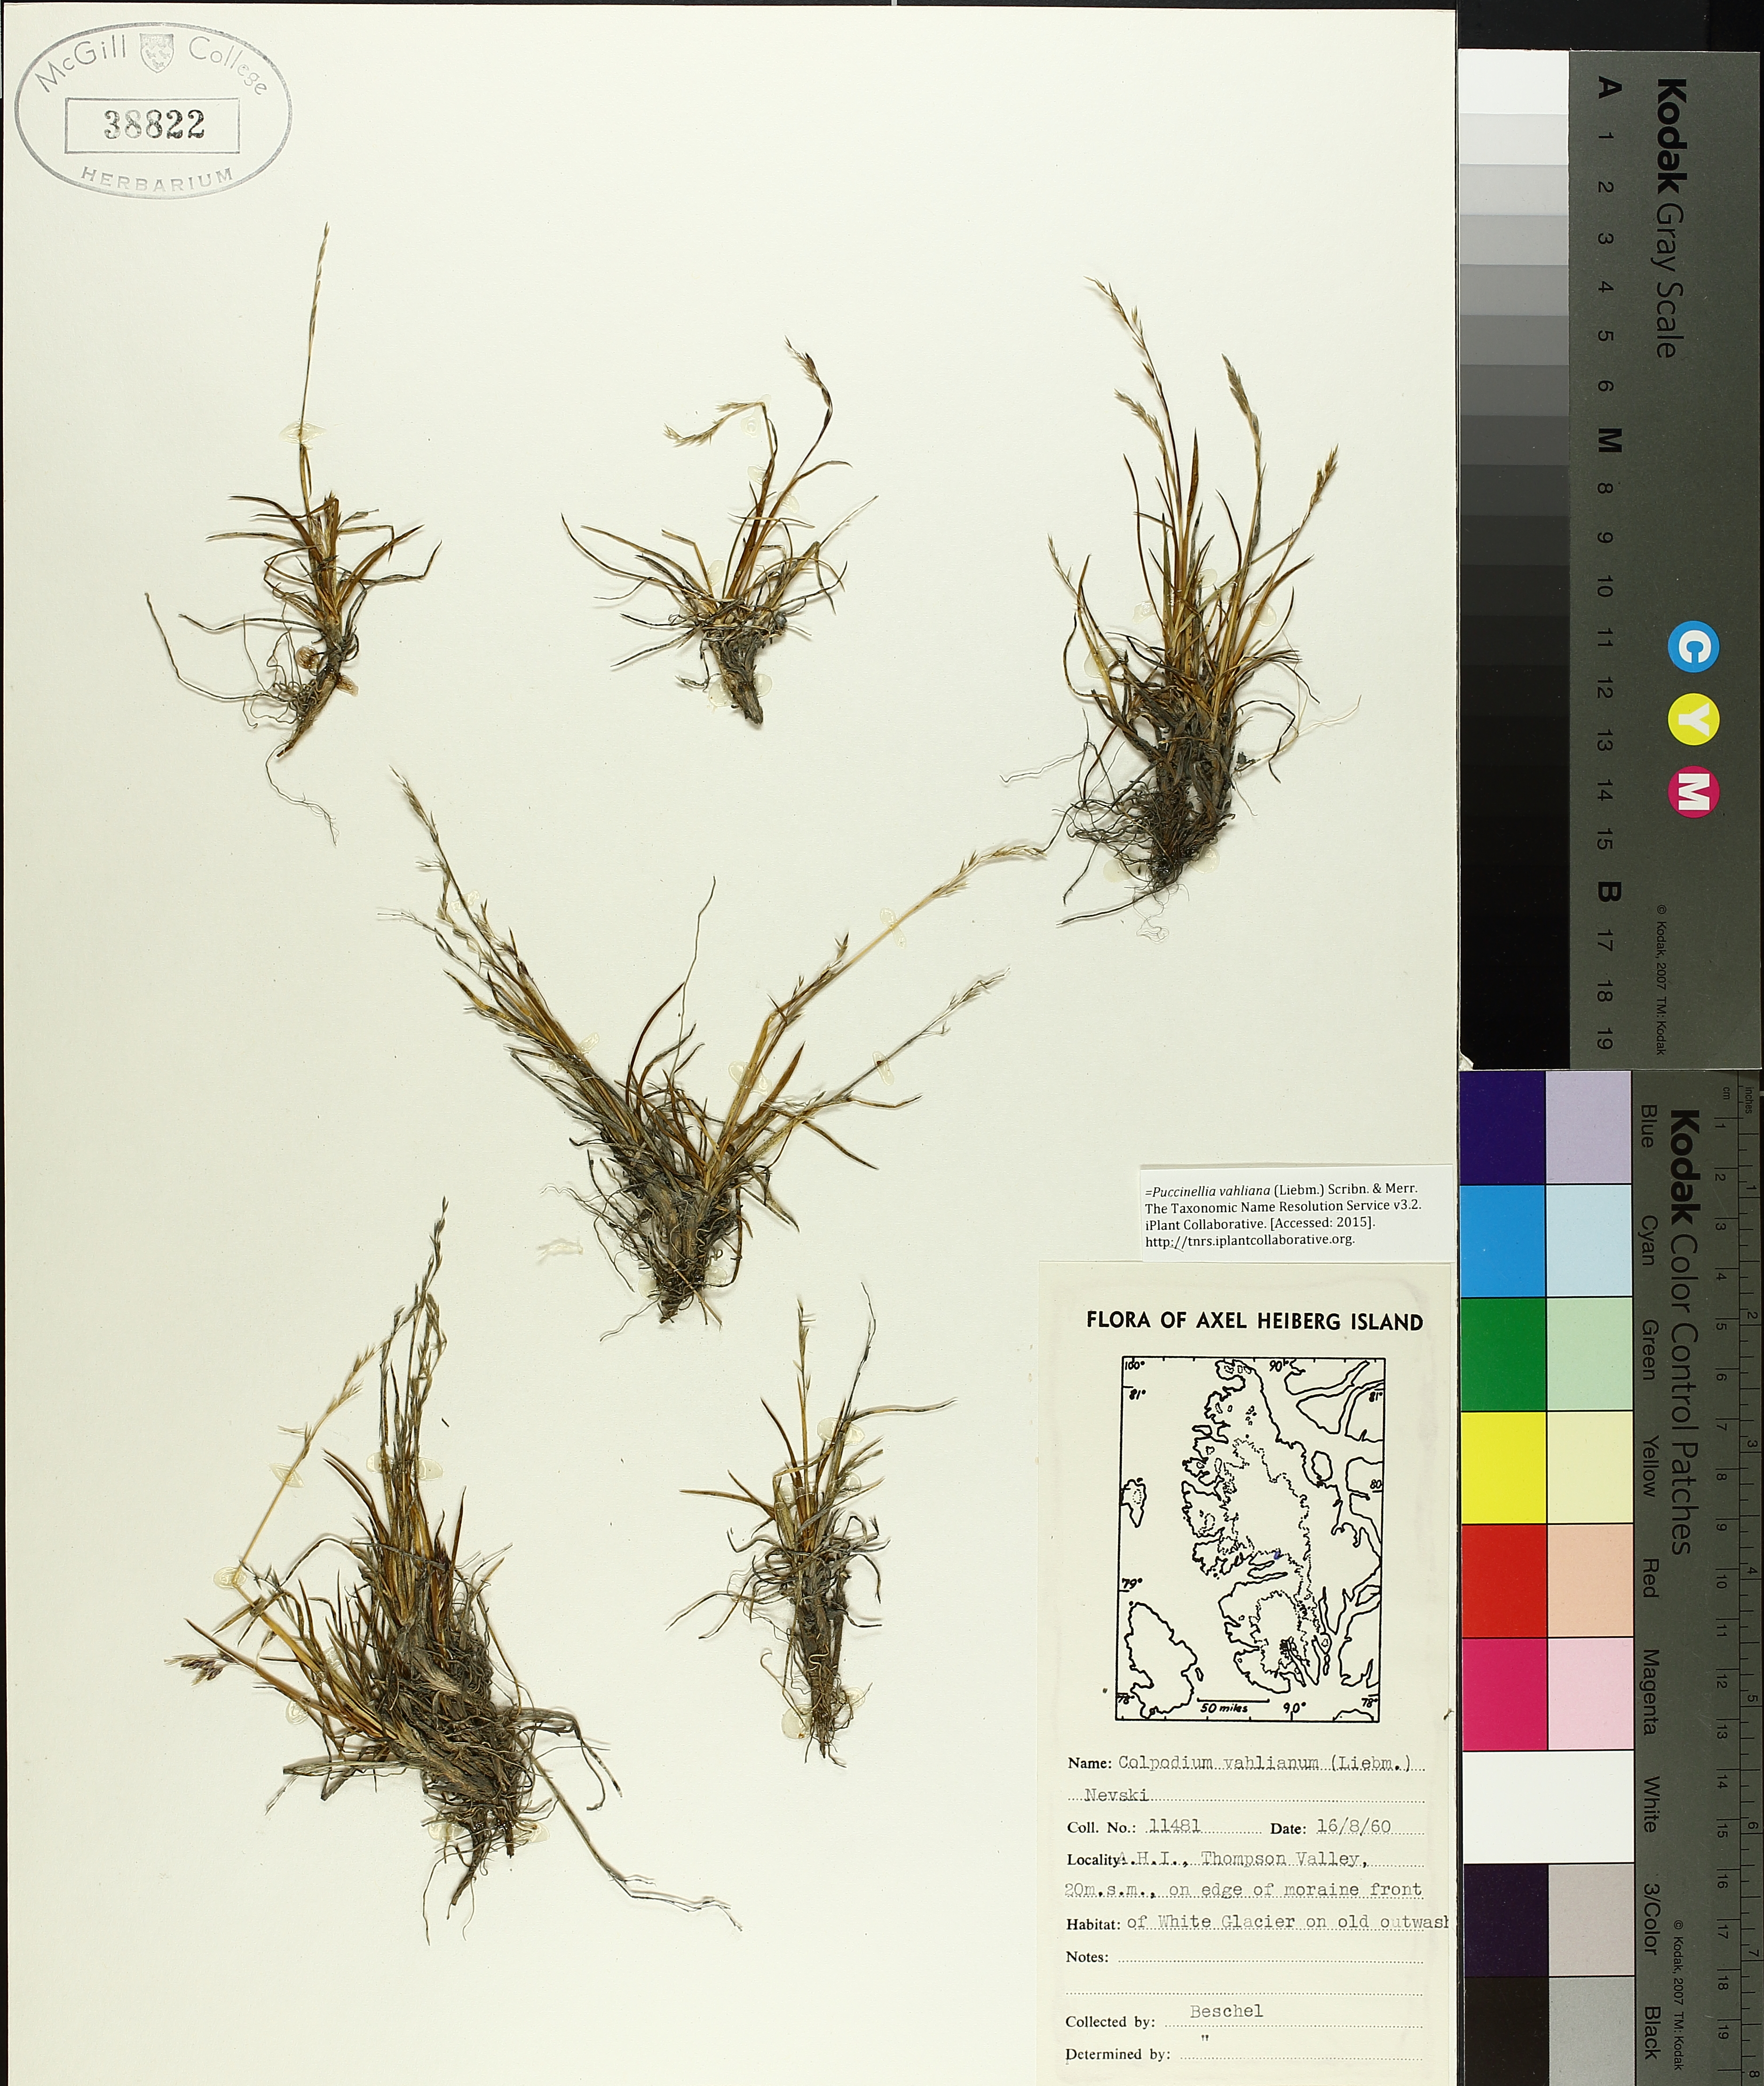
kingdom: Plantae
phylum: Tracheophyta
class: Liliopsida
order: Poales
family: Poaceae
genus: Puccinellia
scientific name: Puccinellia vahliana
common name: Vahl's alkaligrass
